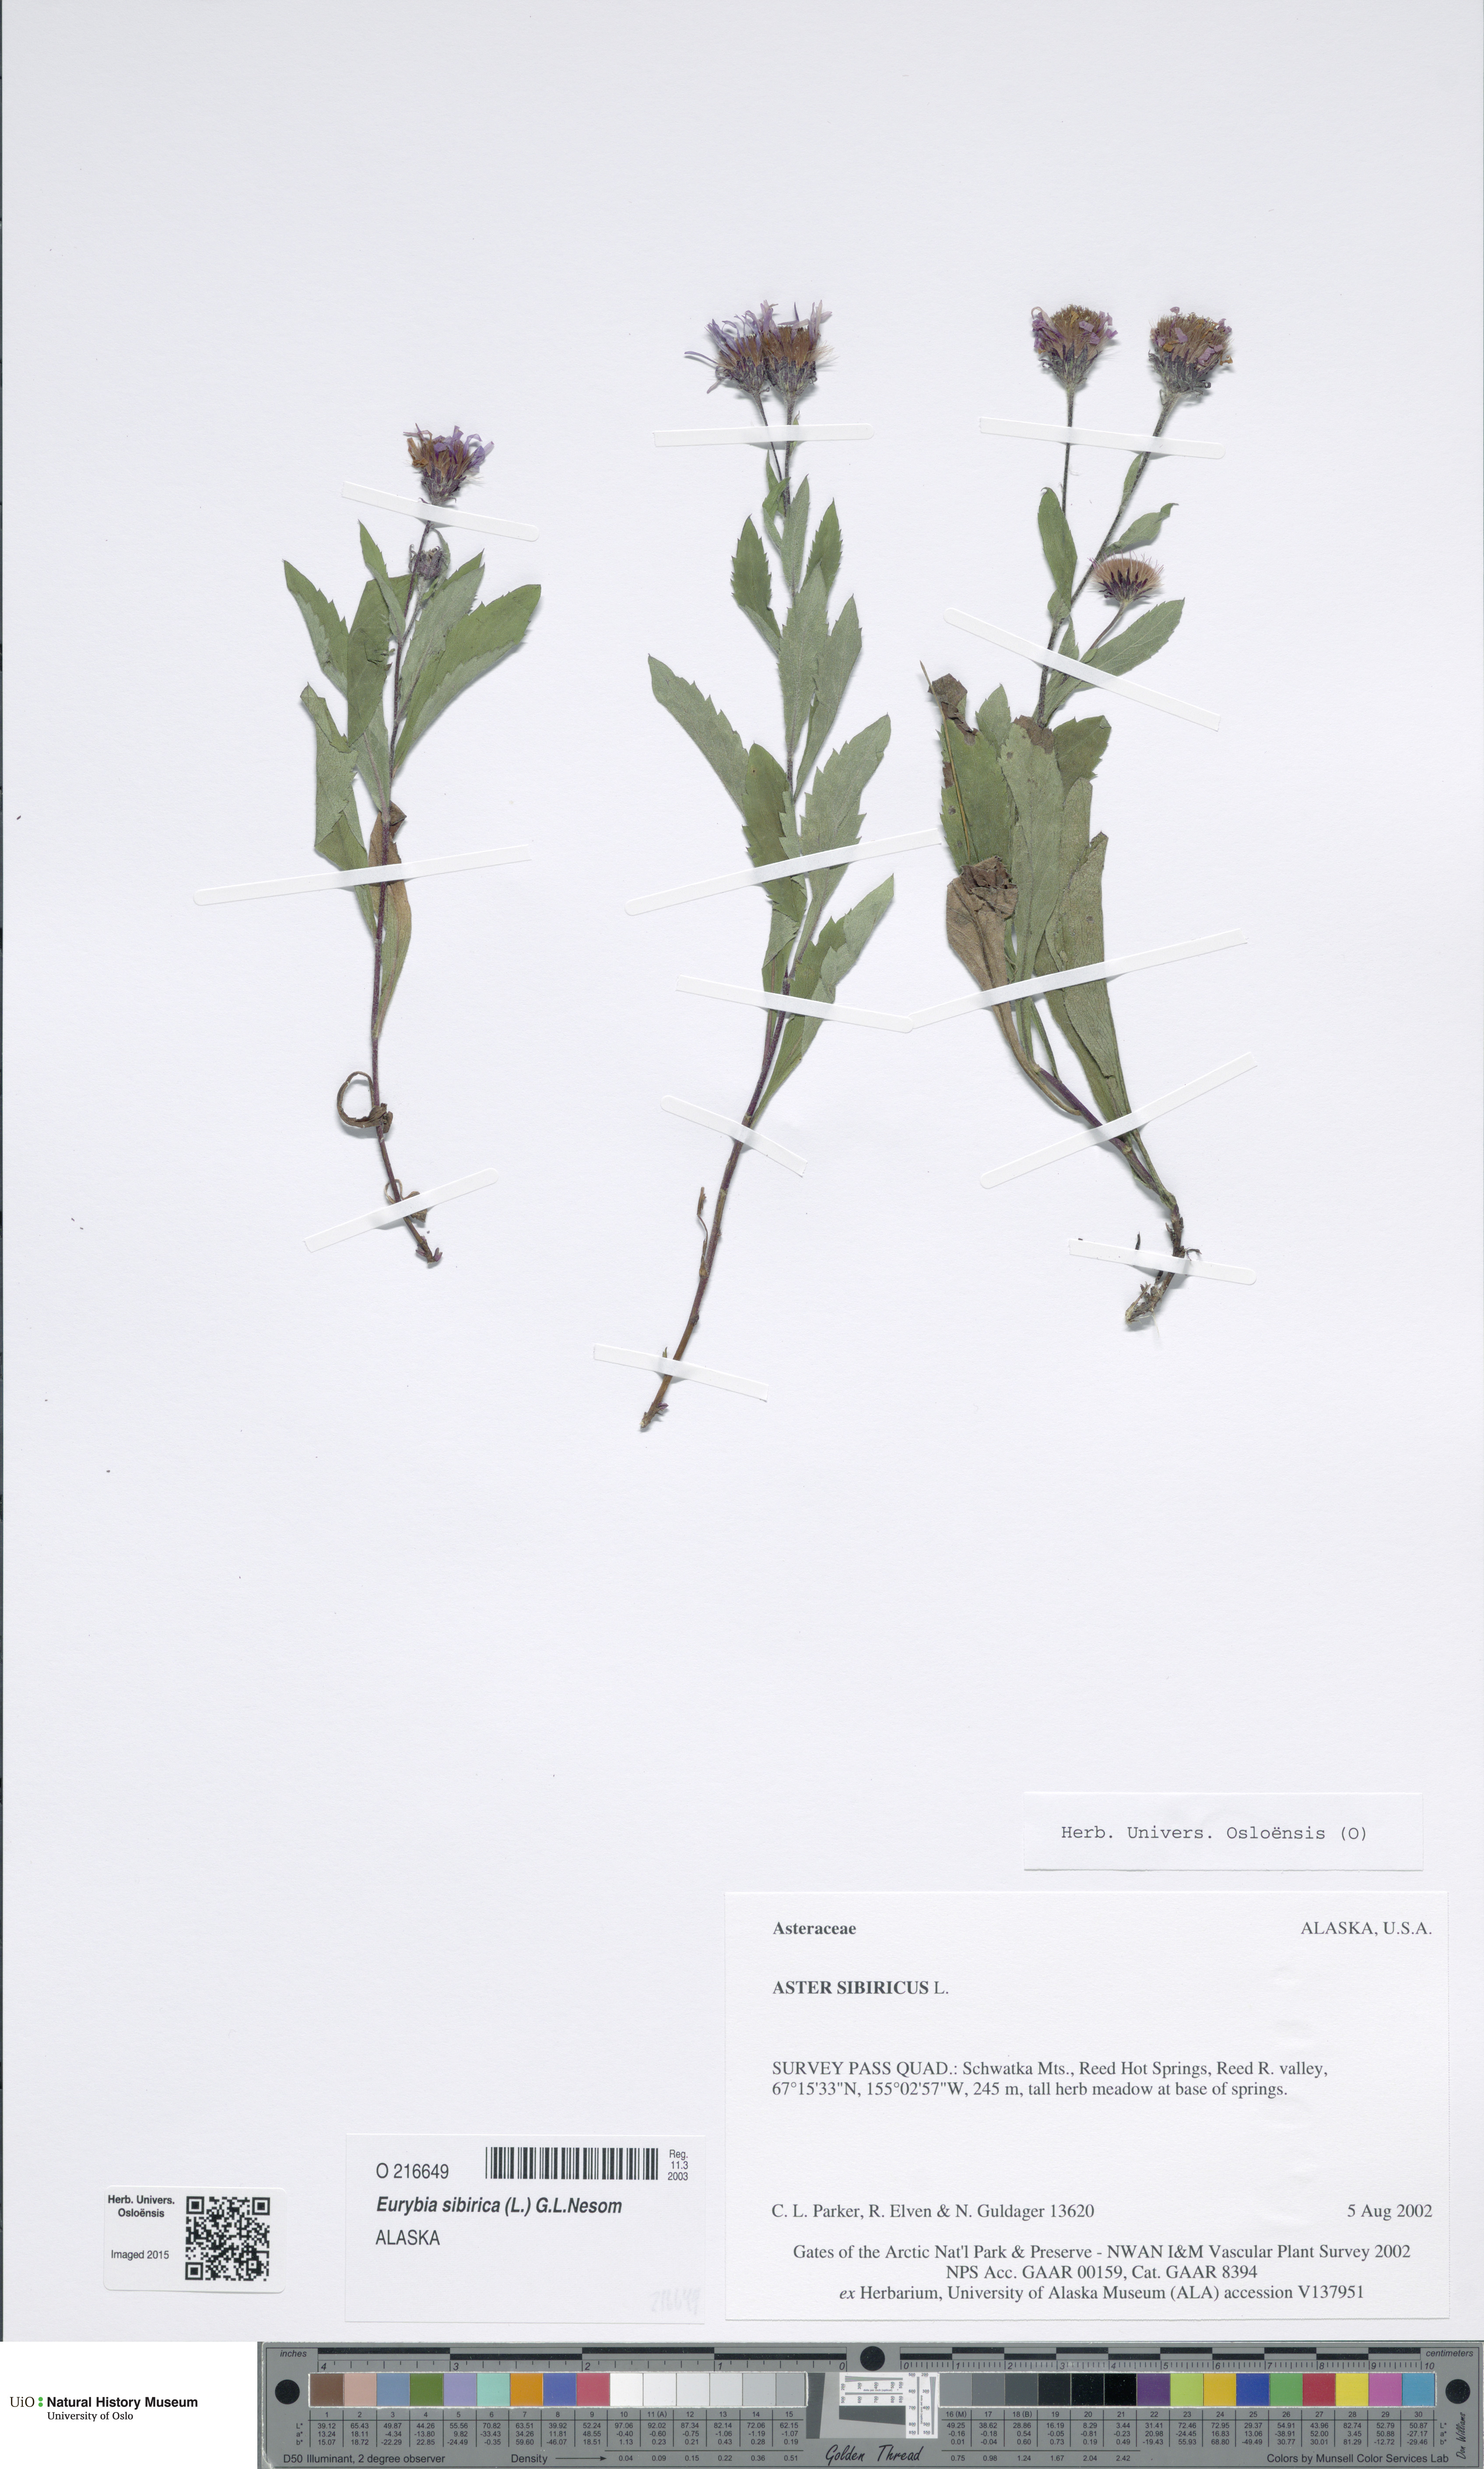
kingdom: Plantae
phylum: Tracheophyta
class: Magnoliopsida
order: Asterales
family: Asteraceae
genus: Eurybia
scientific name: Eurybia sibirica
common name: Arctic aster
